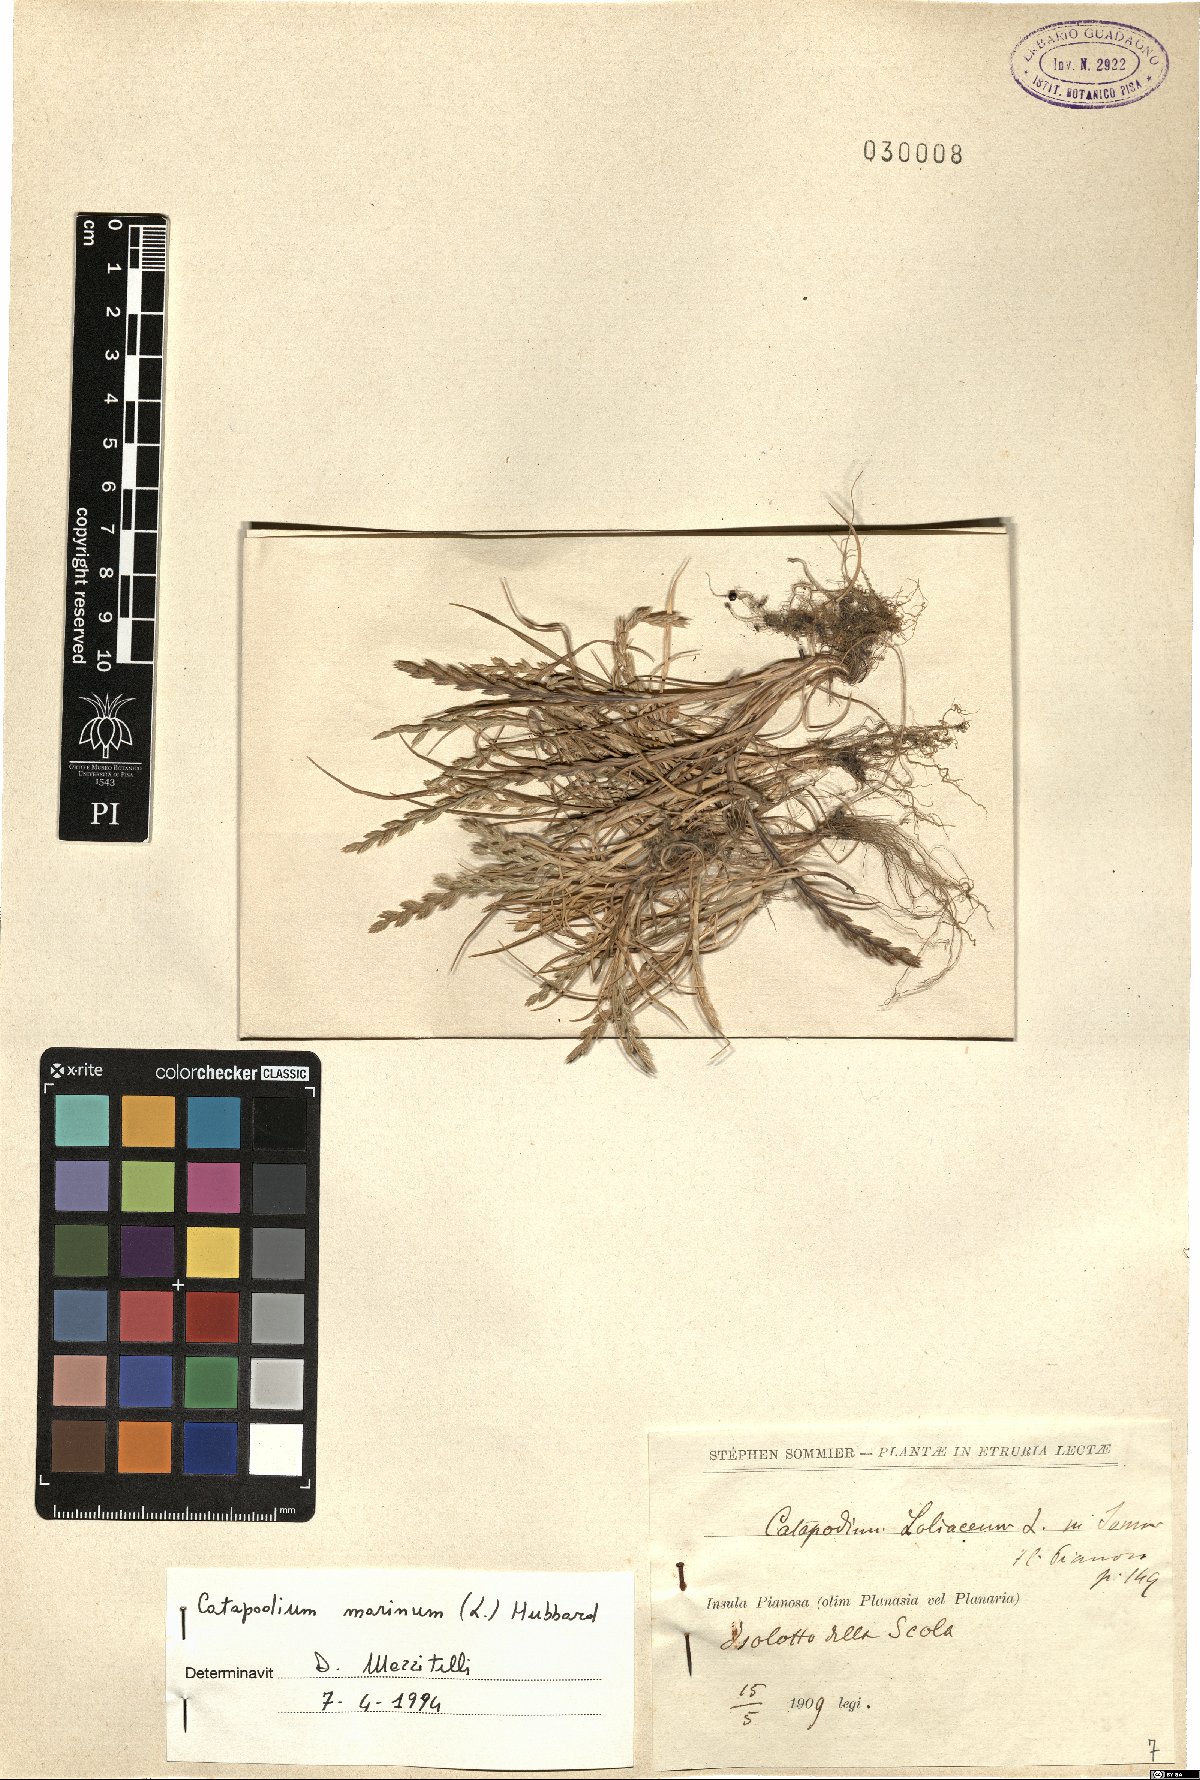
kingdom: Plantae
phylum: Tracheophyta
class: Liliopsida
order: Poales
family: Poaceae
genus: Catapodium
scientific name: Catapodium marinum
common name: Sea fern-grass
